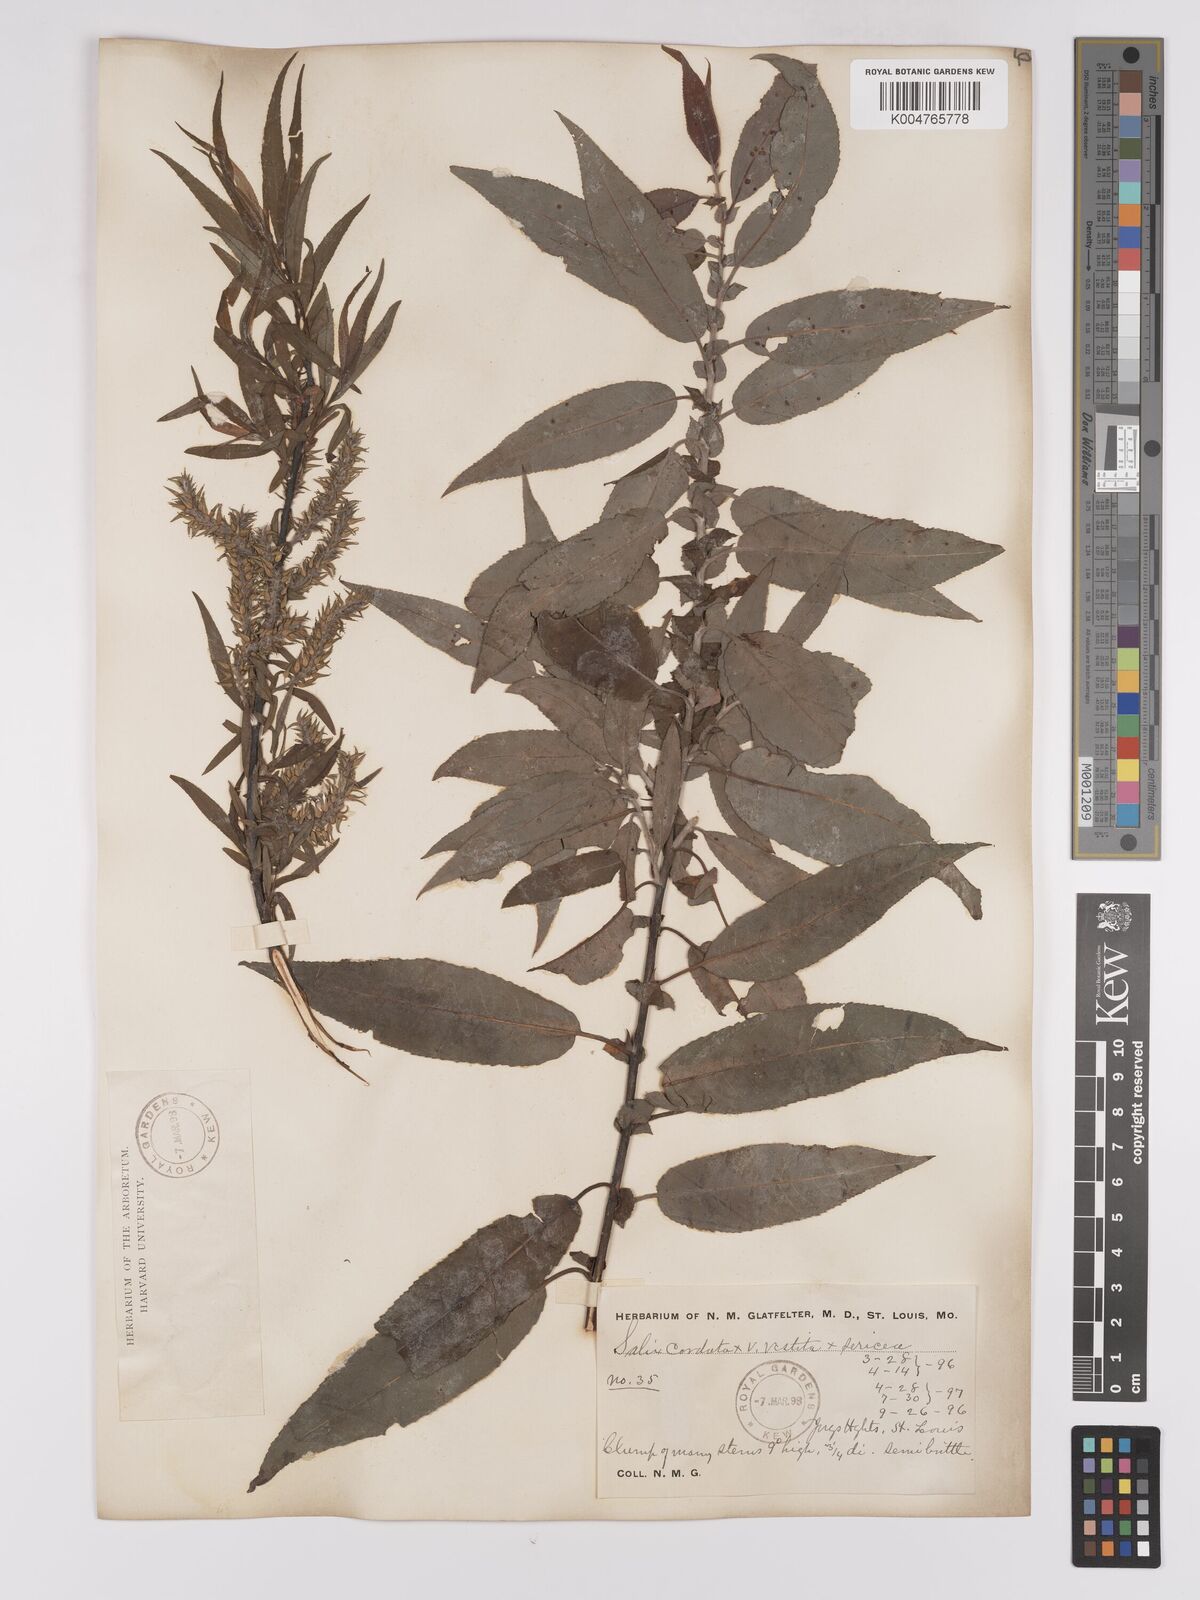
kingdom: Plantae
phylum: Tracheophyta
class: Magnoliopsida
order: Malpighiales
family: Salicaceae
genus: Salix
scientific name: Salix cordata
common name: Heart-leaf willow
